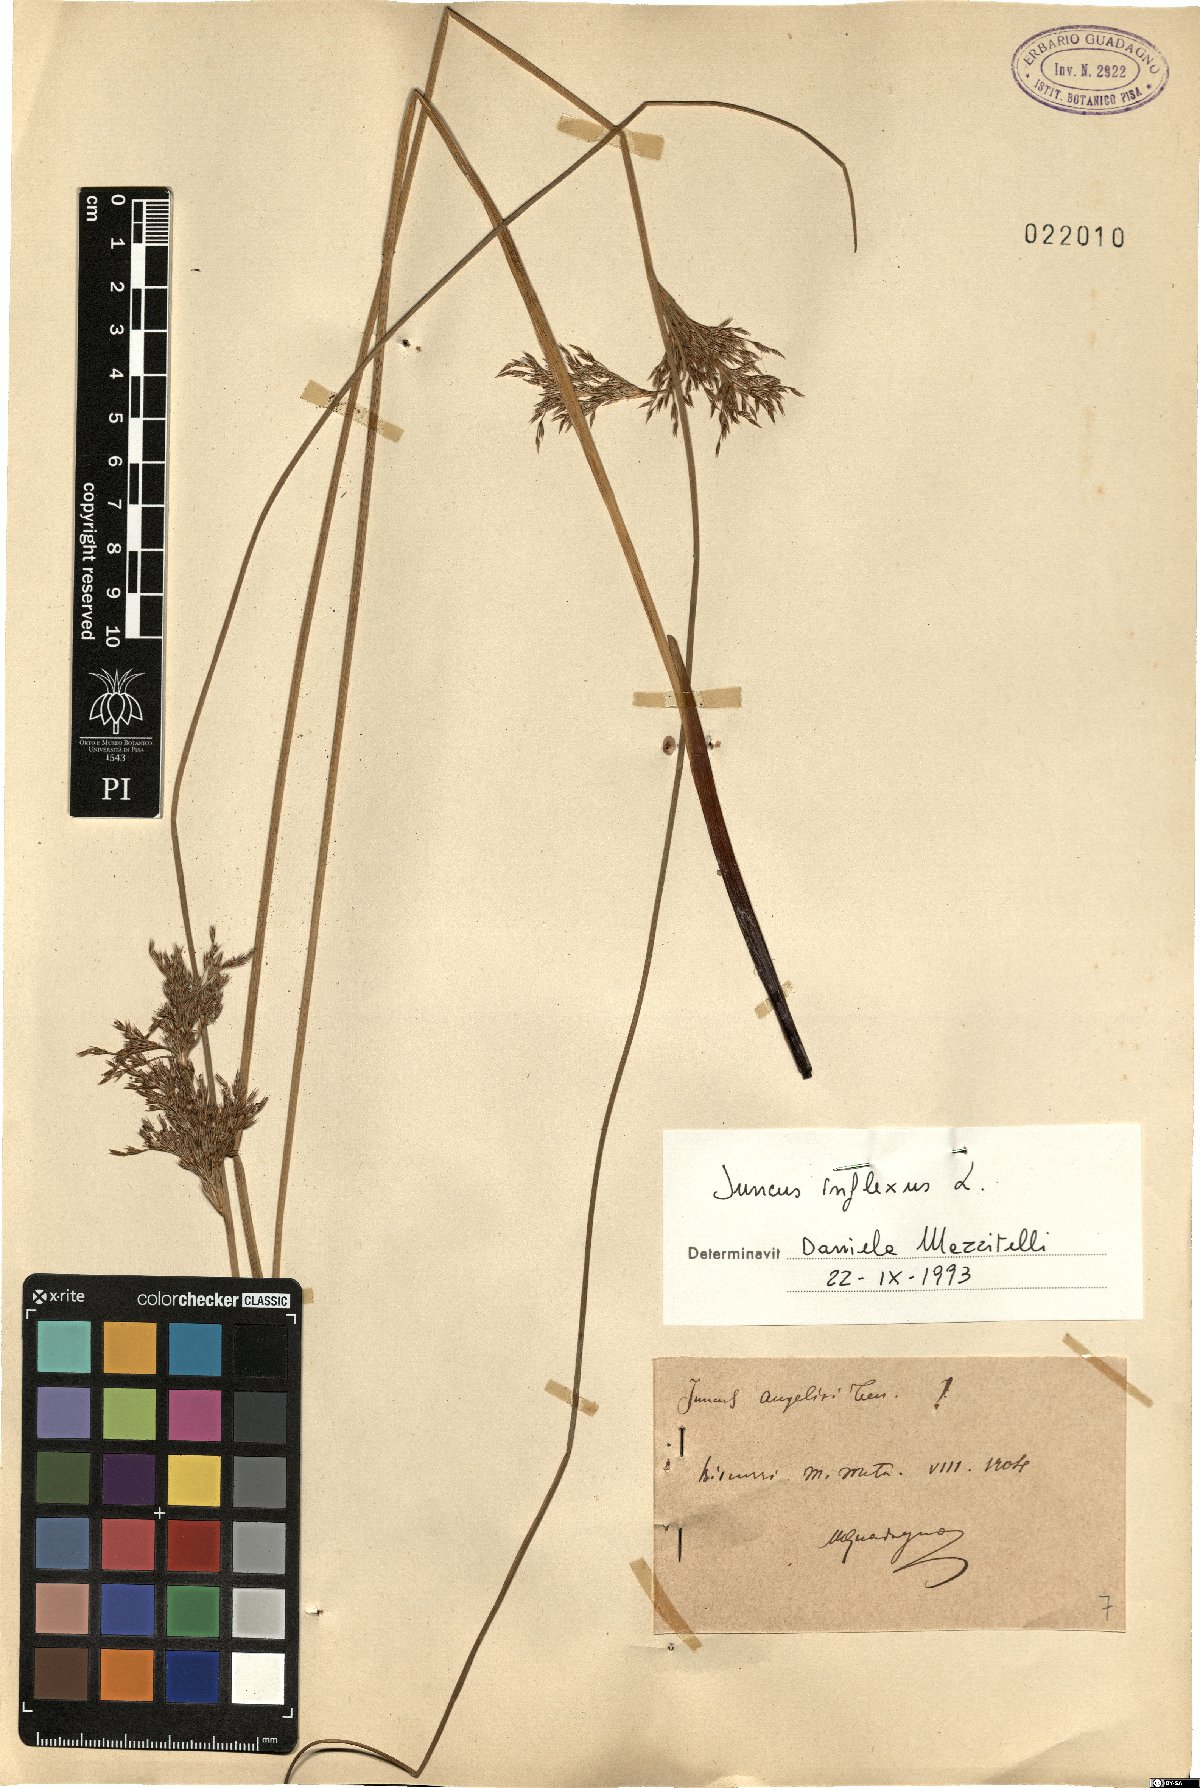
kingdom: Plantae
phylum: Tracheophyta
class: Liliopsida
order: Poales
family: Juncaceae
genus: Juncus
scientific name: Juncus inflexus
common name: Hard rush
